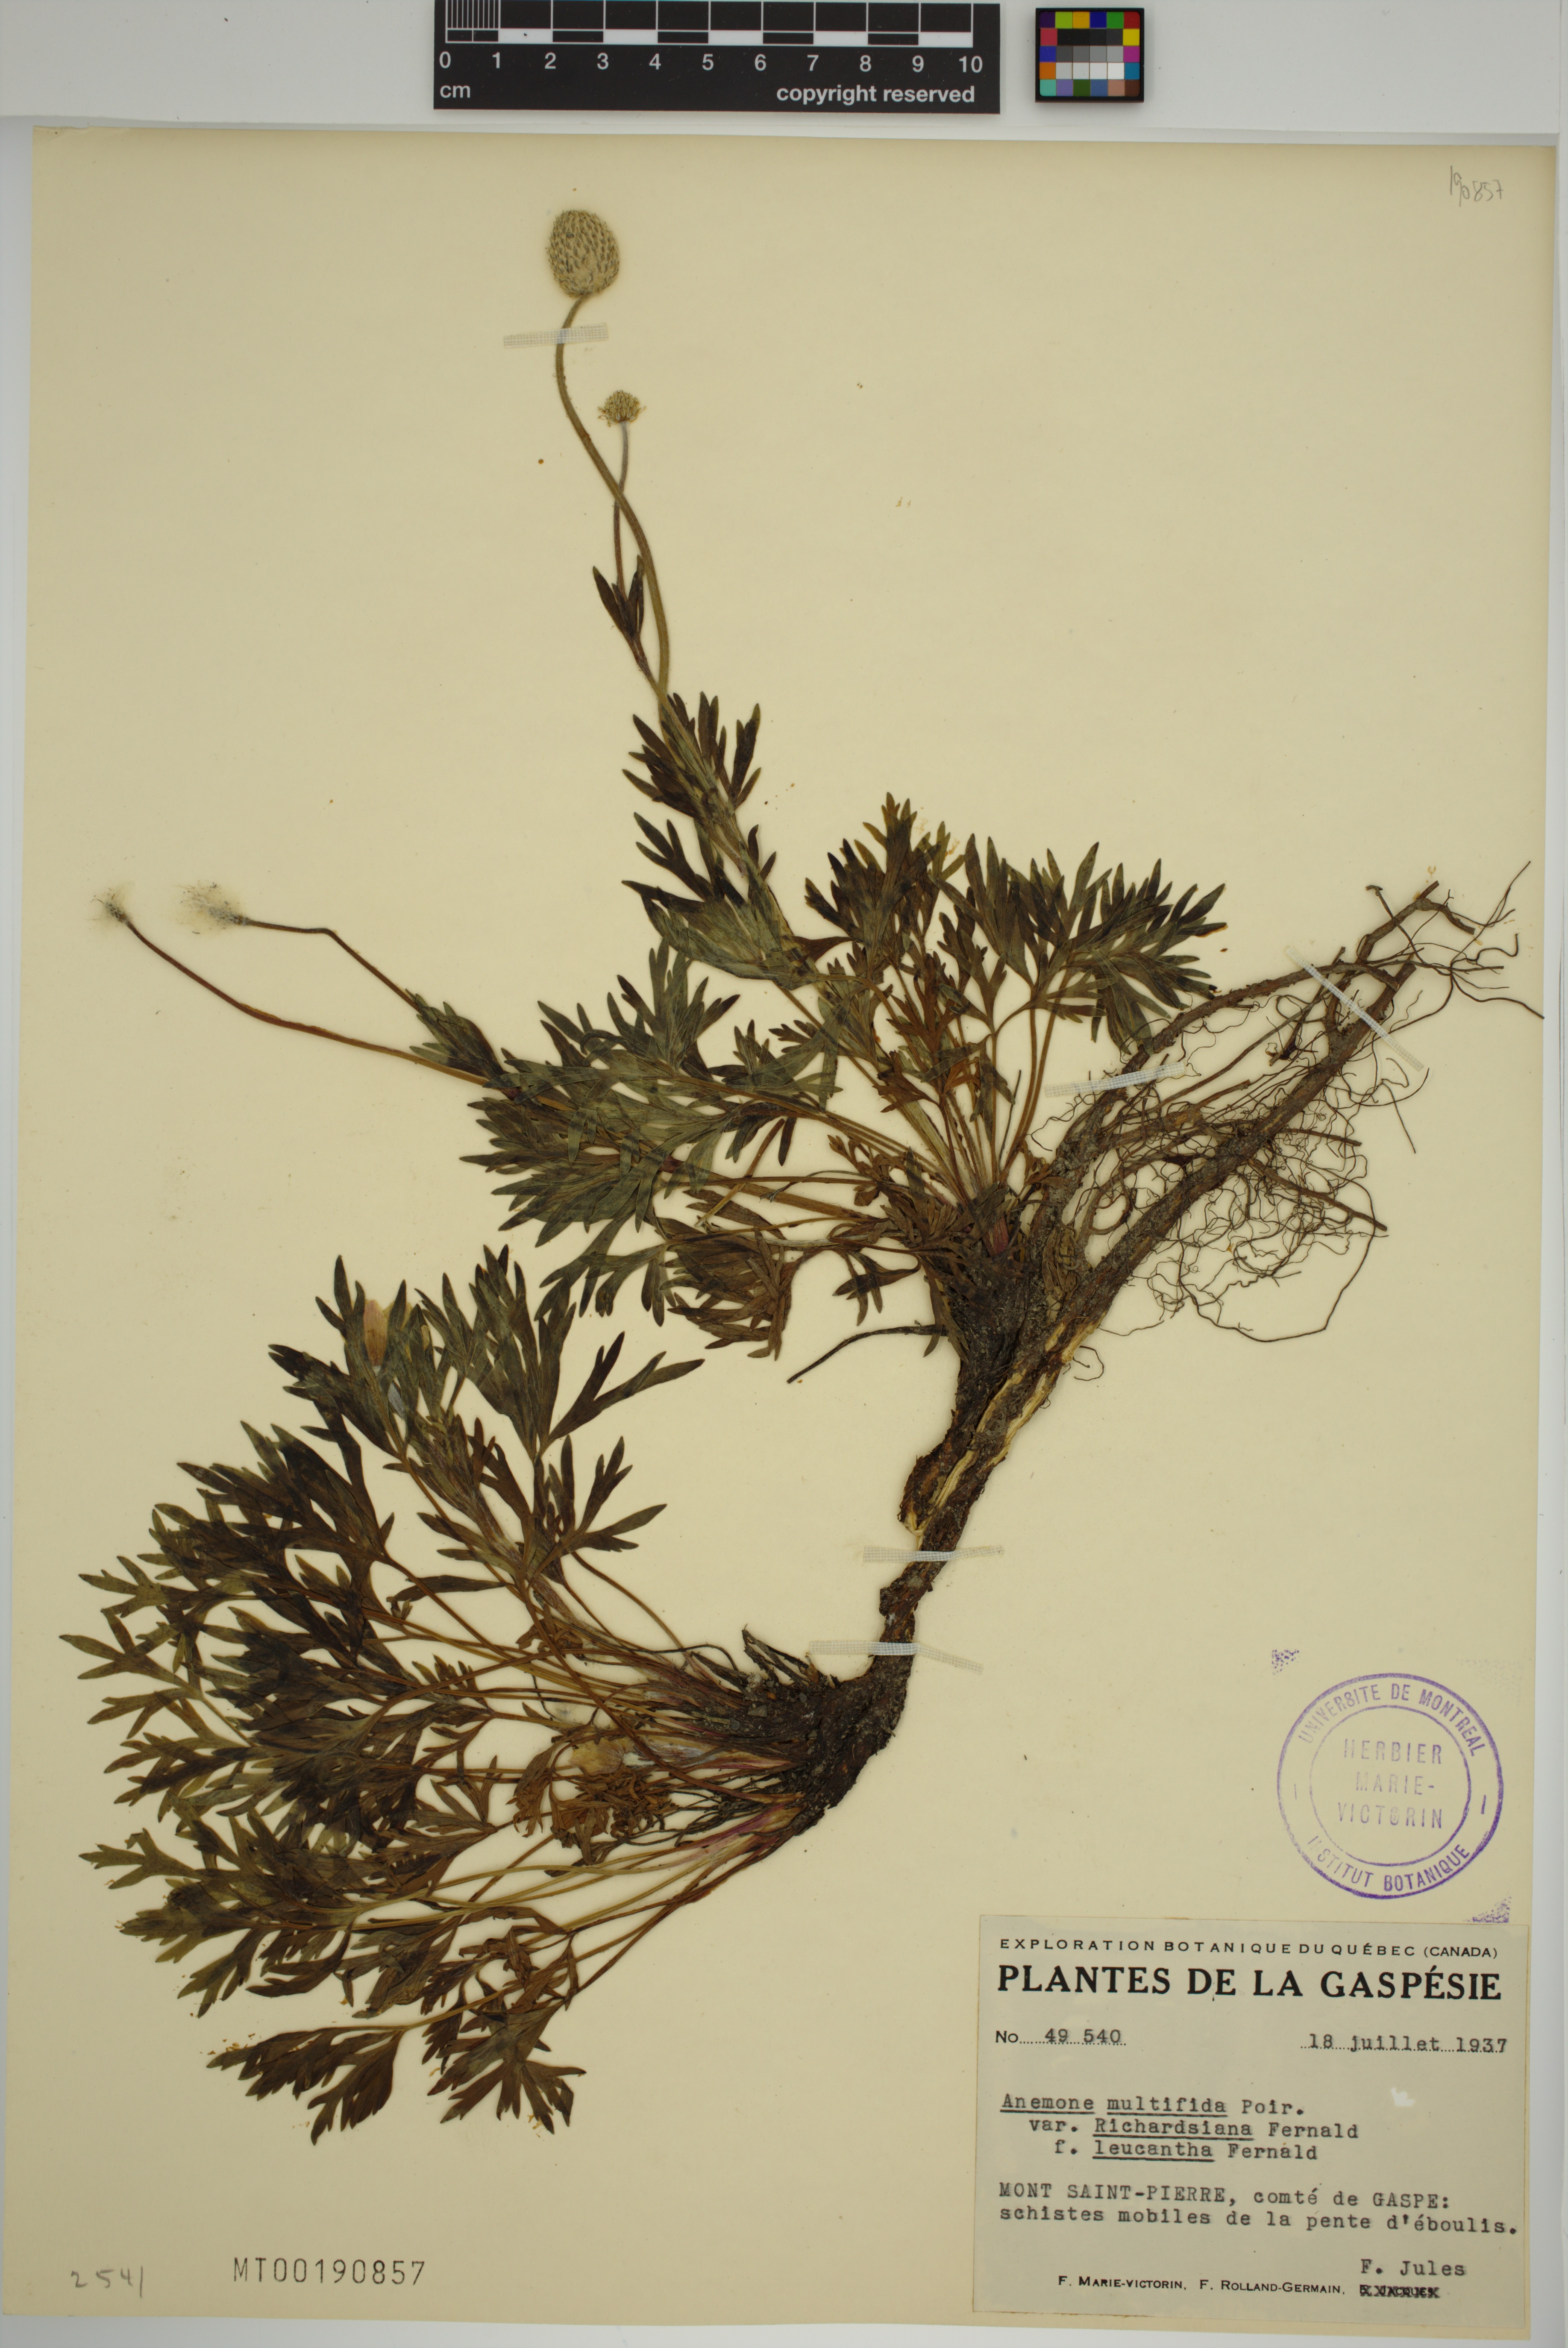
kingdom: Plantae
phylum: Tracheophyta
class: Magnoliopsida
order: Ranunculales
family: Ranunculaceae
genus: Anemone
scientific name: Anemone multifida
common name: Bird's-foot anemone
